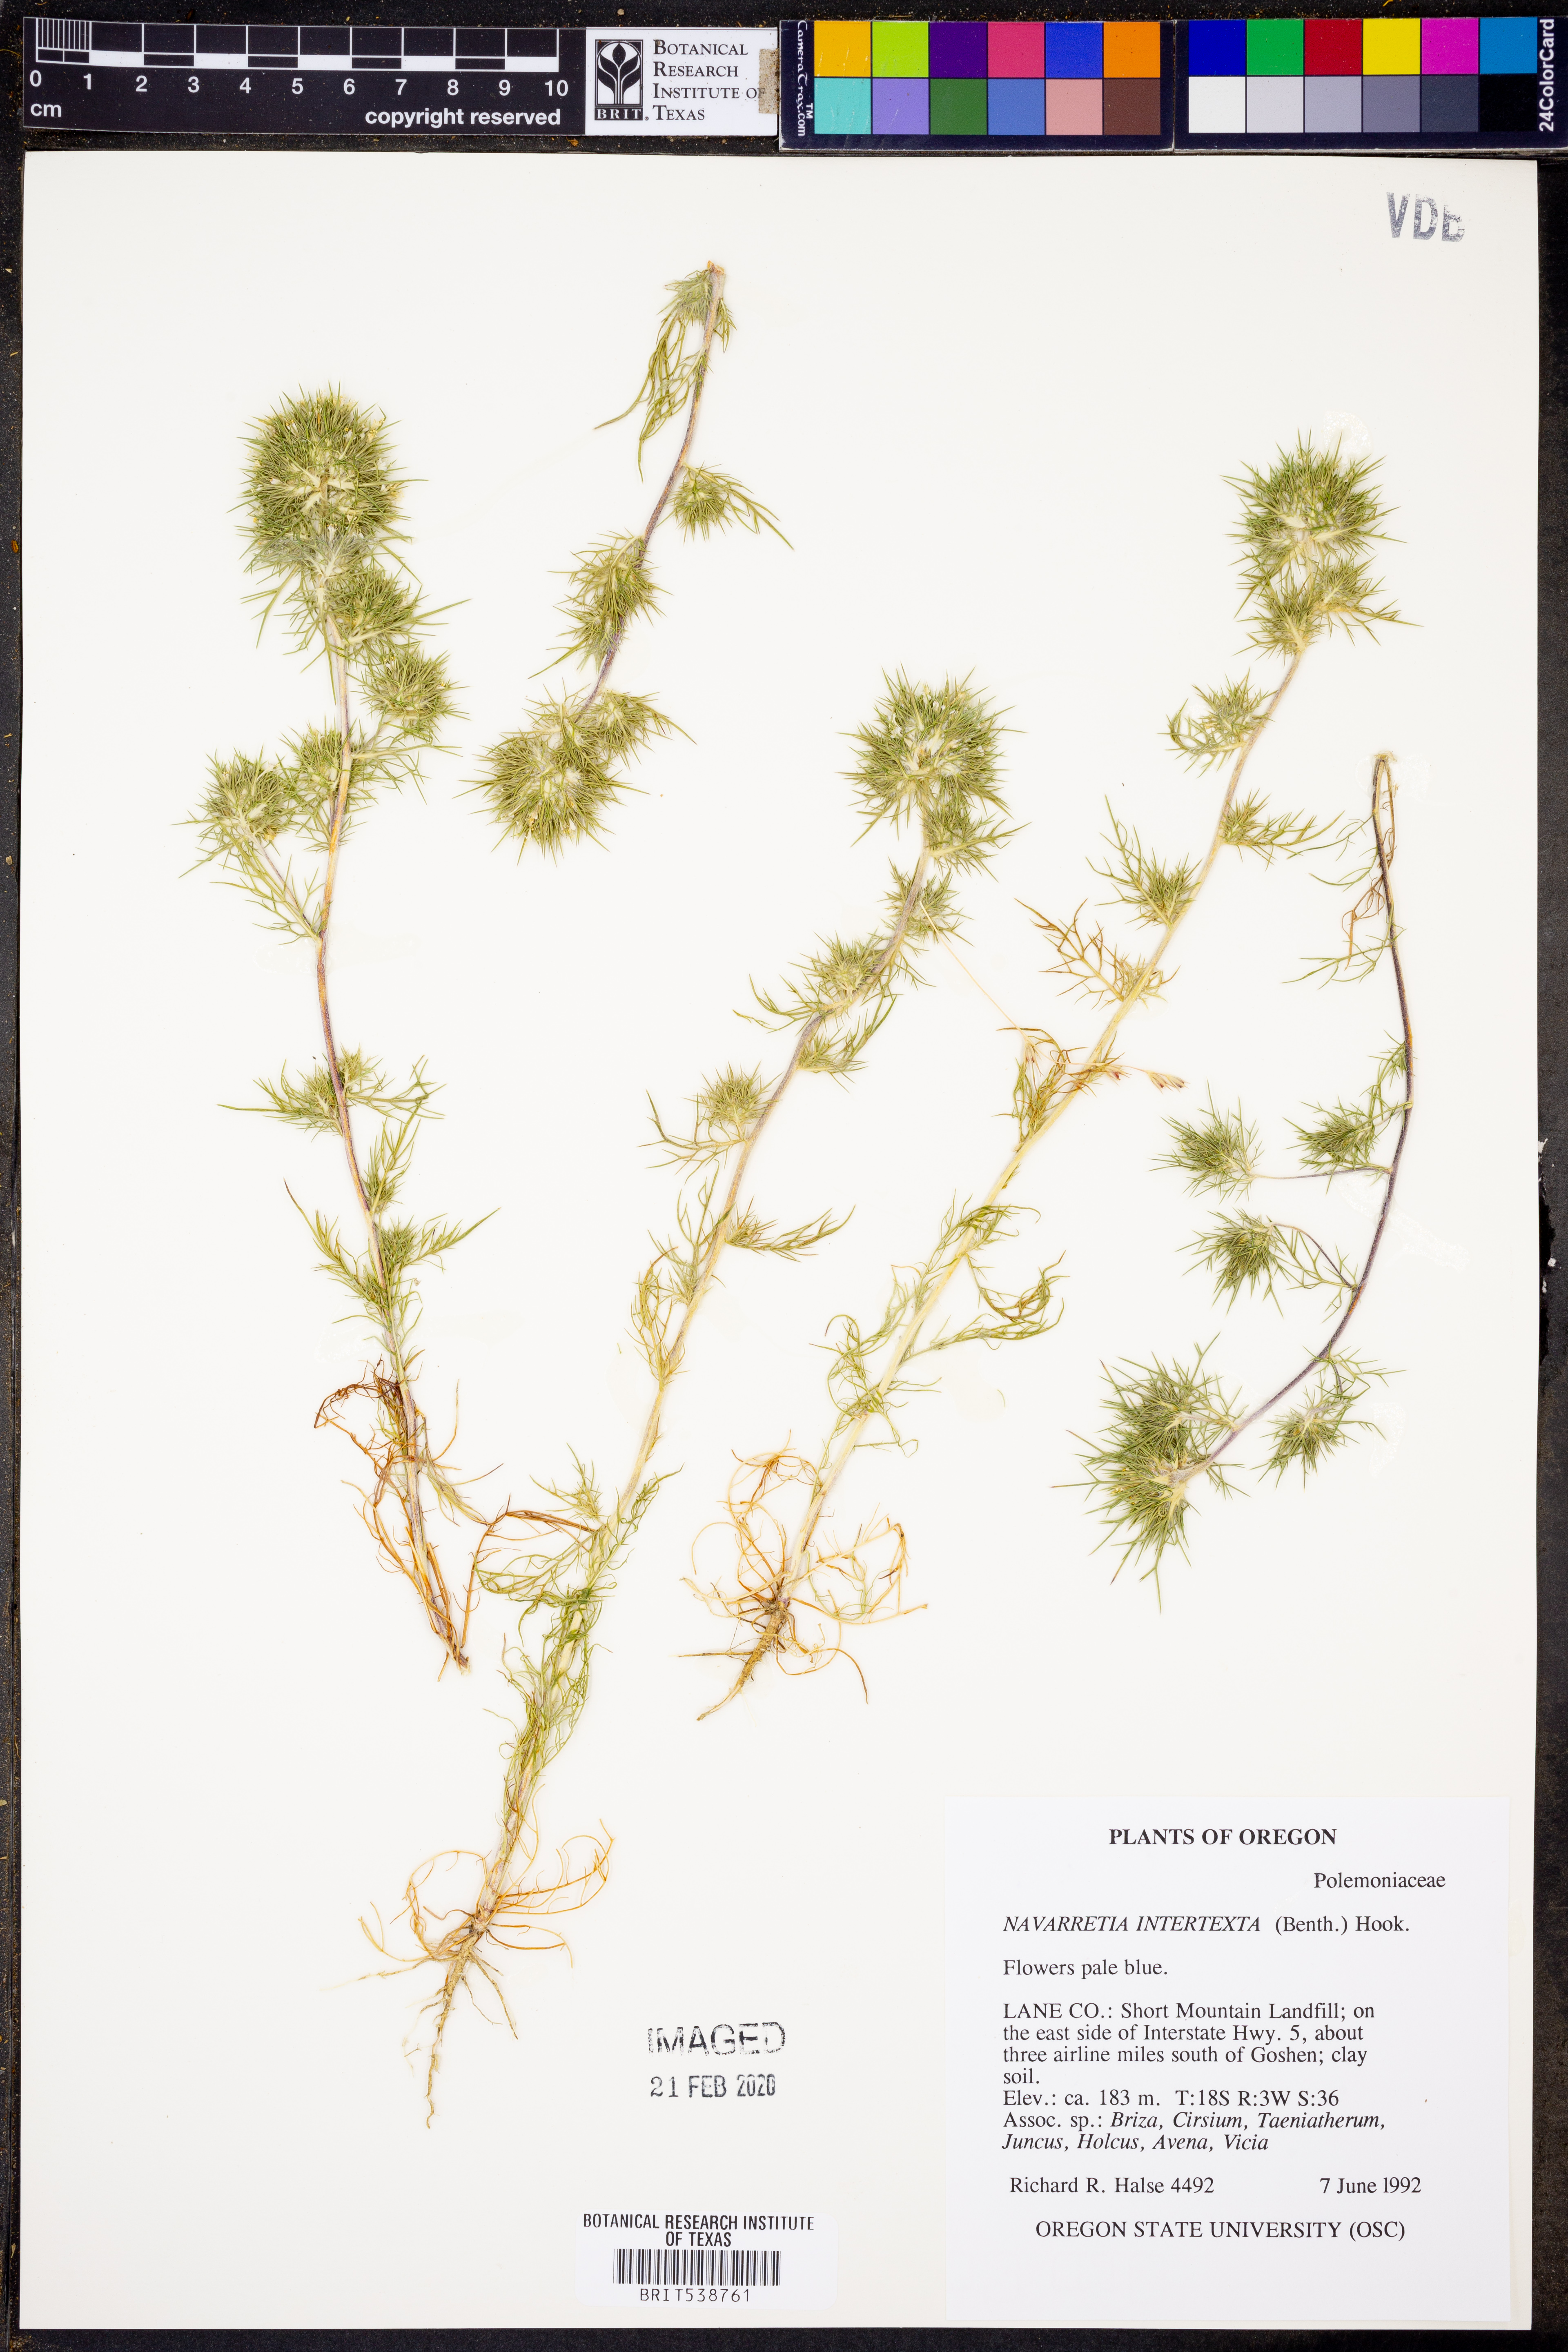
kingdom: Plantae
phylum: Tracheophyta
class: Magnoliopsida
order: Ericales
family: Polemoniaceae
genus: Navarretia
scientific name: Navarretia intertexta
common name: Needle-leaved navarretia
